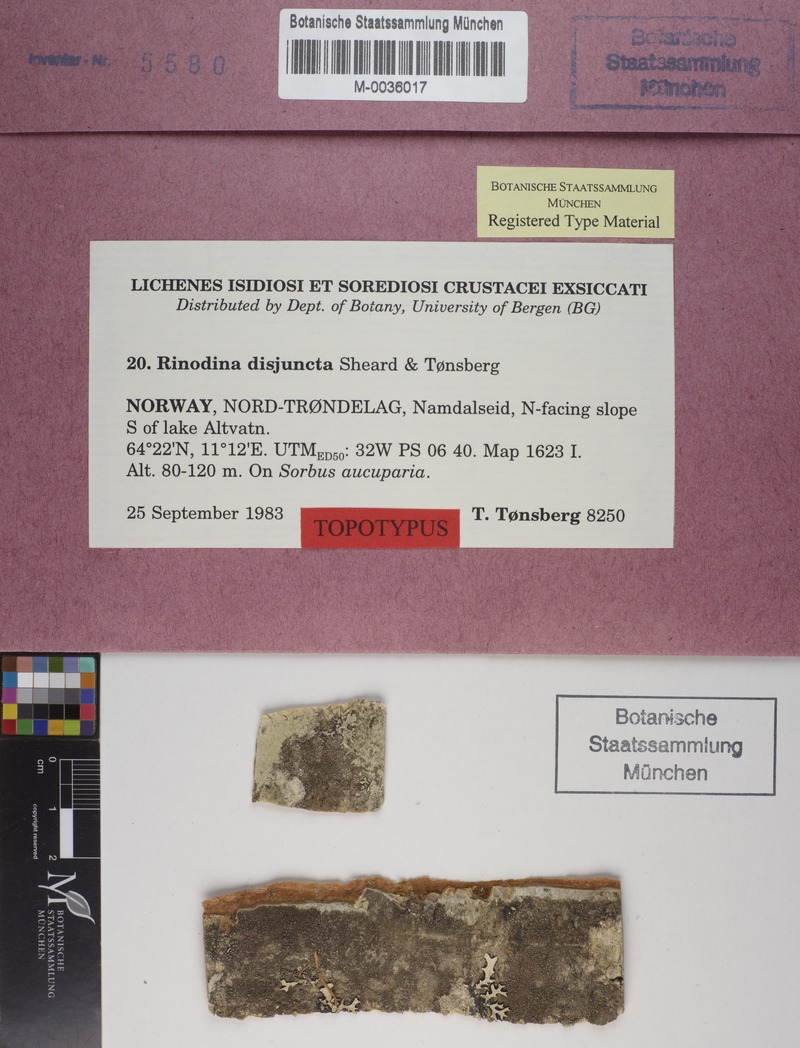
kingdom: Fungi
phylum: Ascomycota
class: Lecanoromycetes
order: Caliciales
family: Physciaceae
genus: Rinodina
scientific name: Rinodina disjuncta
